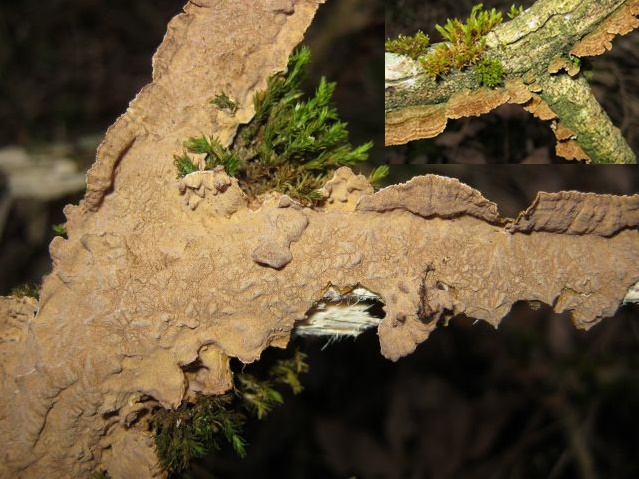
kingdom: Fungi
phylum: Basidiomycota
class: Agaricomycetes
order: Hymenochaetales
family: Hymenochaetaceae
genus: Hydnoporia
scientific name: Hydnoporia tabacina
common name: tobaksbrun ruslædersvamp
